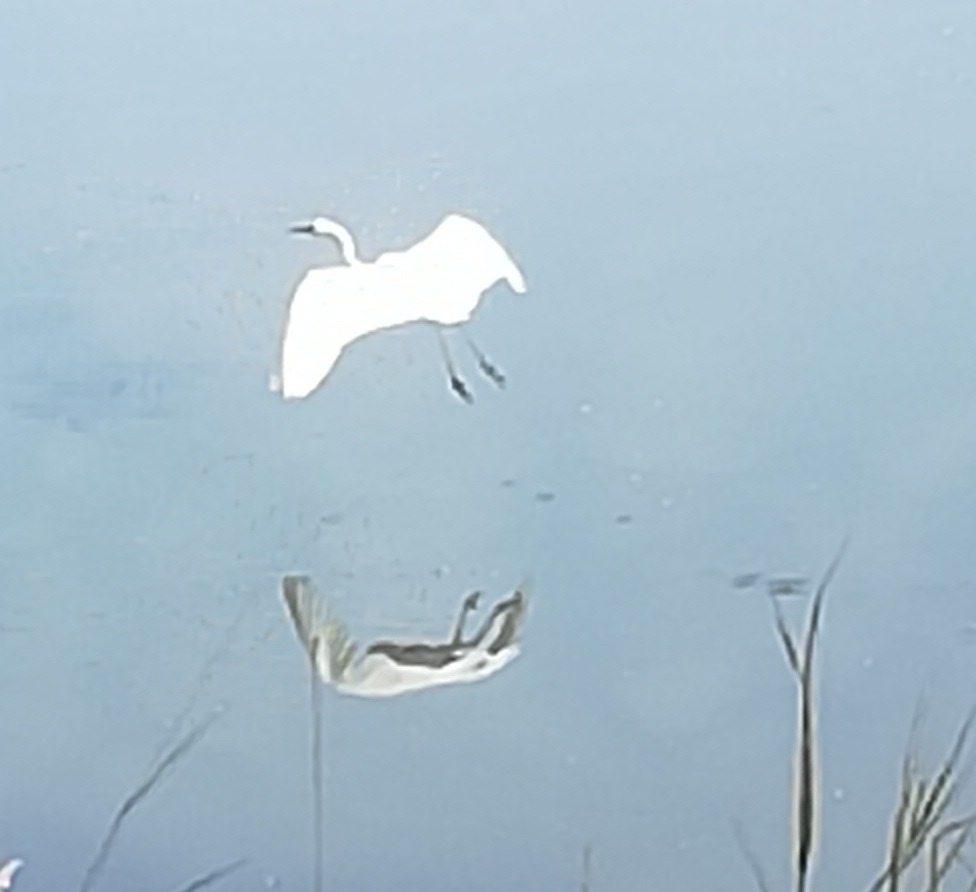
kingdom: Animalia
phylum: Chordata
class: Aves
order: Pelecaniformes
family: Ardeidae
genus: Ardea
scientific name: Ardea alba
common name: Sølvhejre
